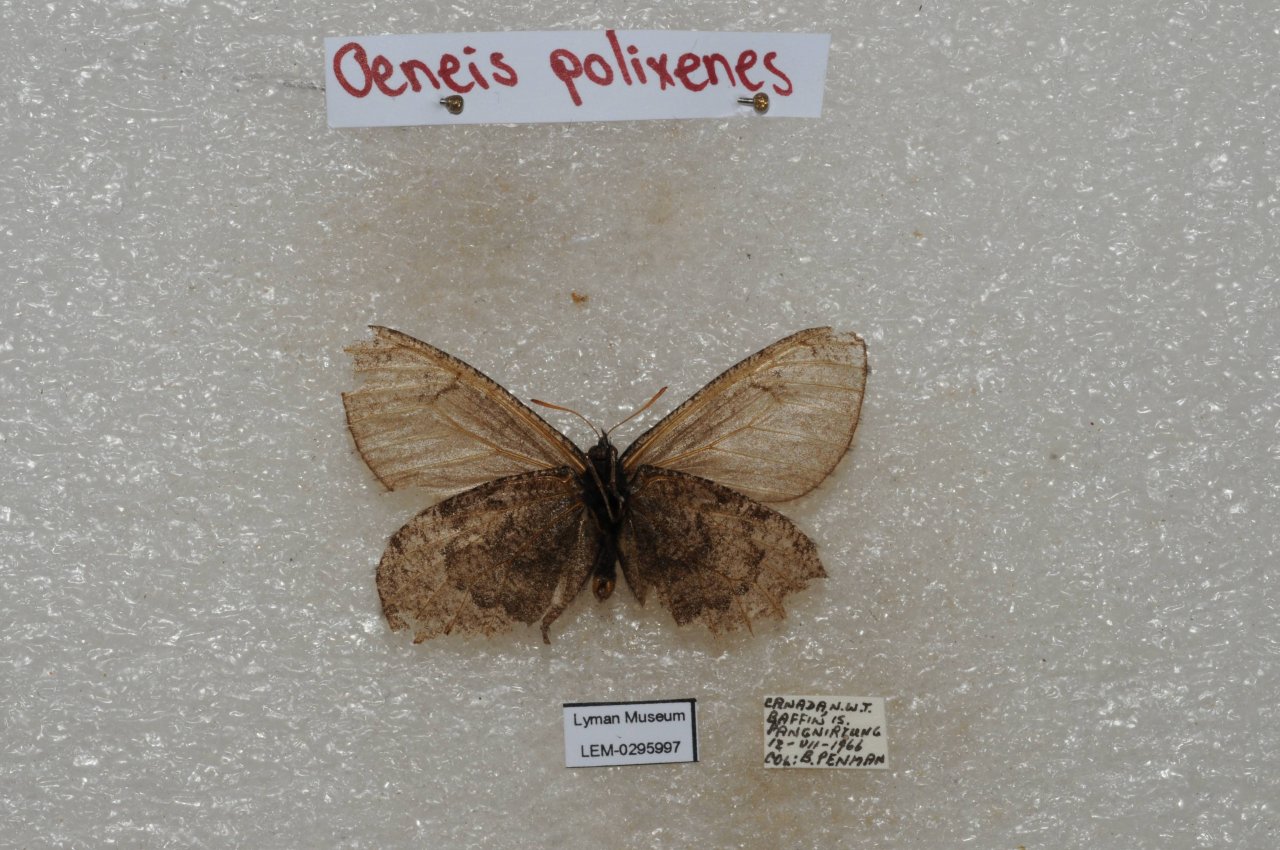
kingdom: Animalia
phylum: Arthropoda
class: Insecta
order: Lepidoptera
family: Nymphalidae
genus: Oeneis
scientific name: Oeneis bore
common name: Polixenes Arctic
